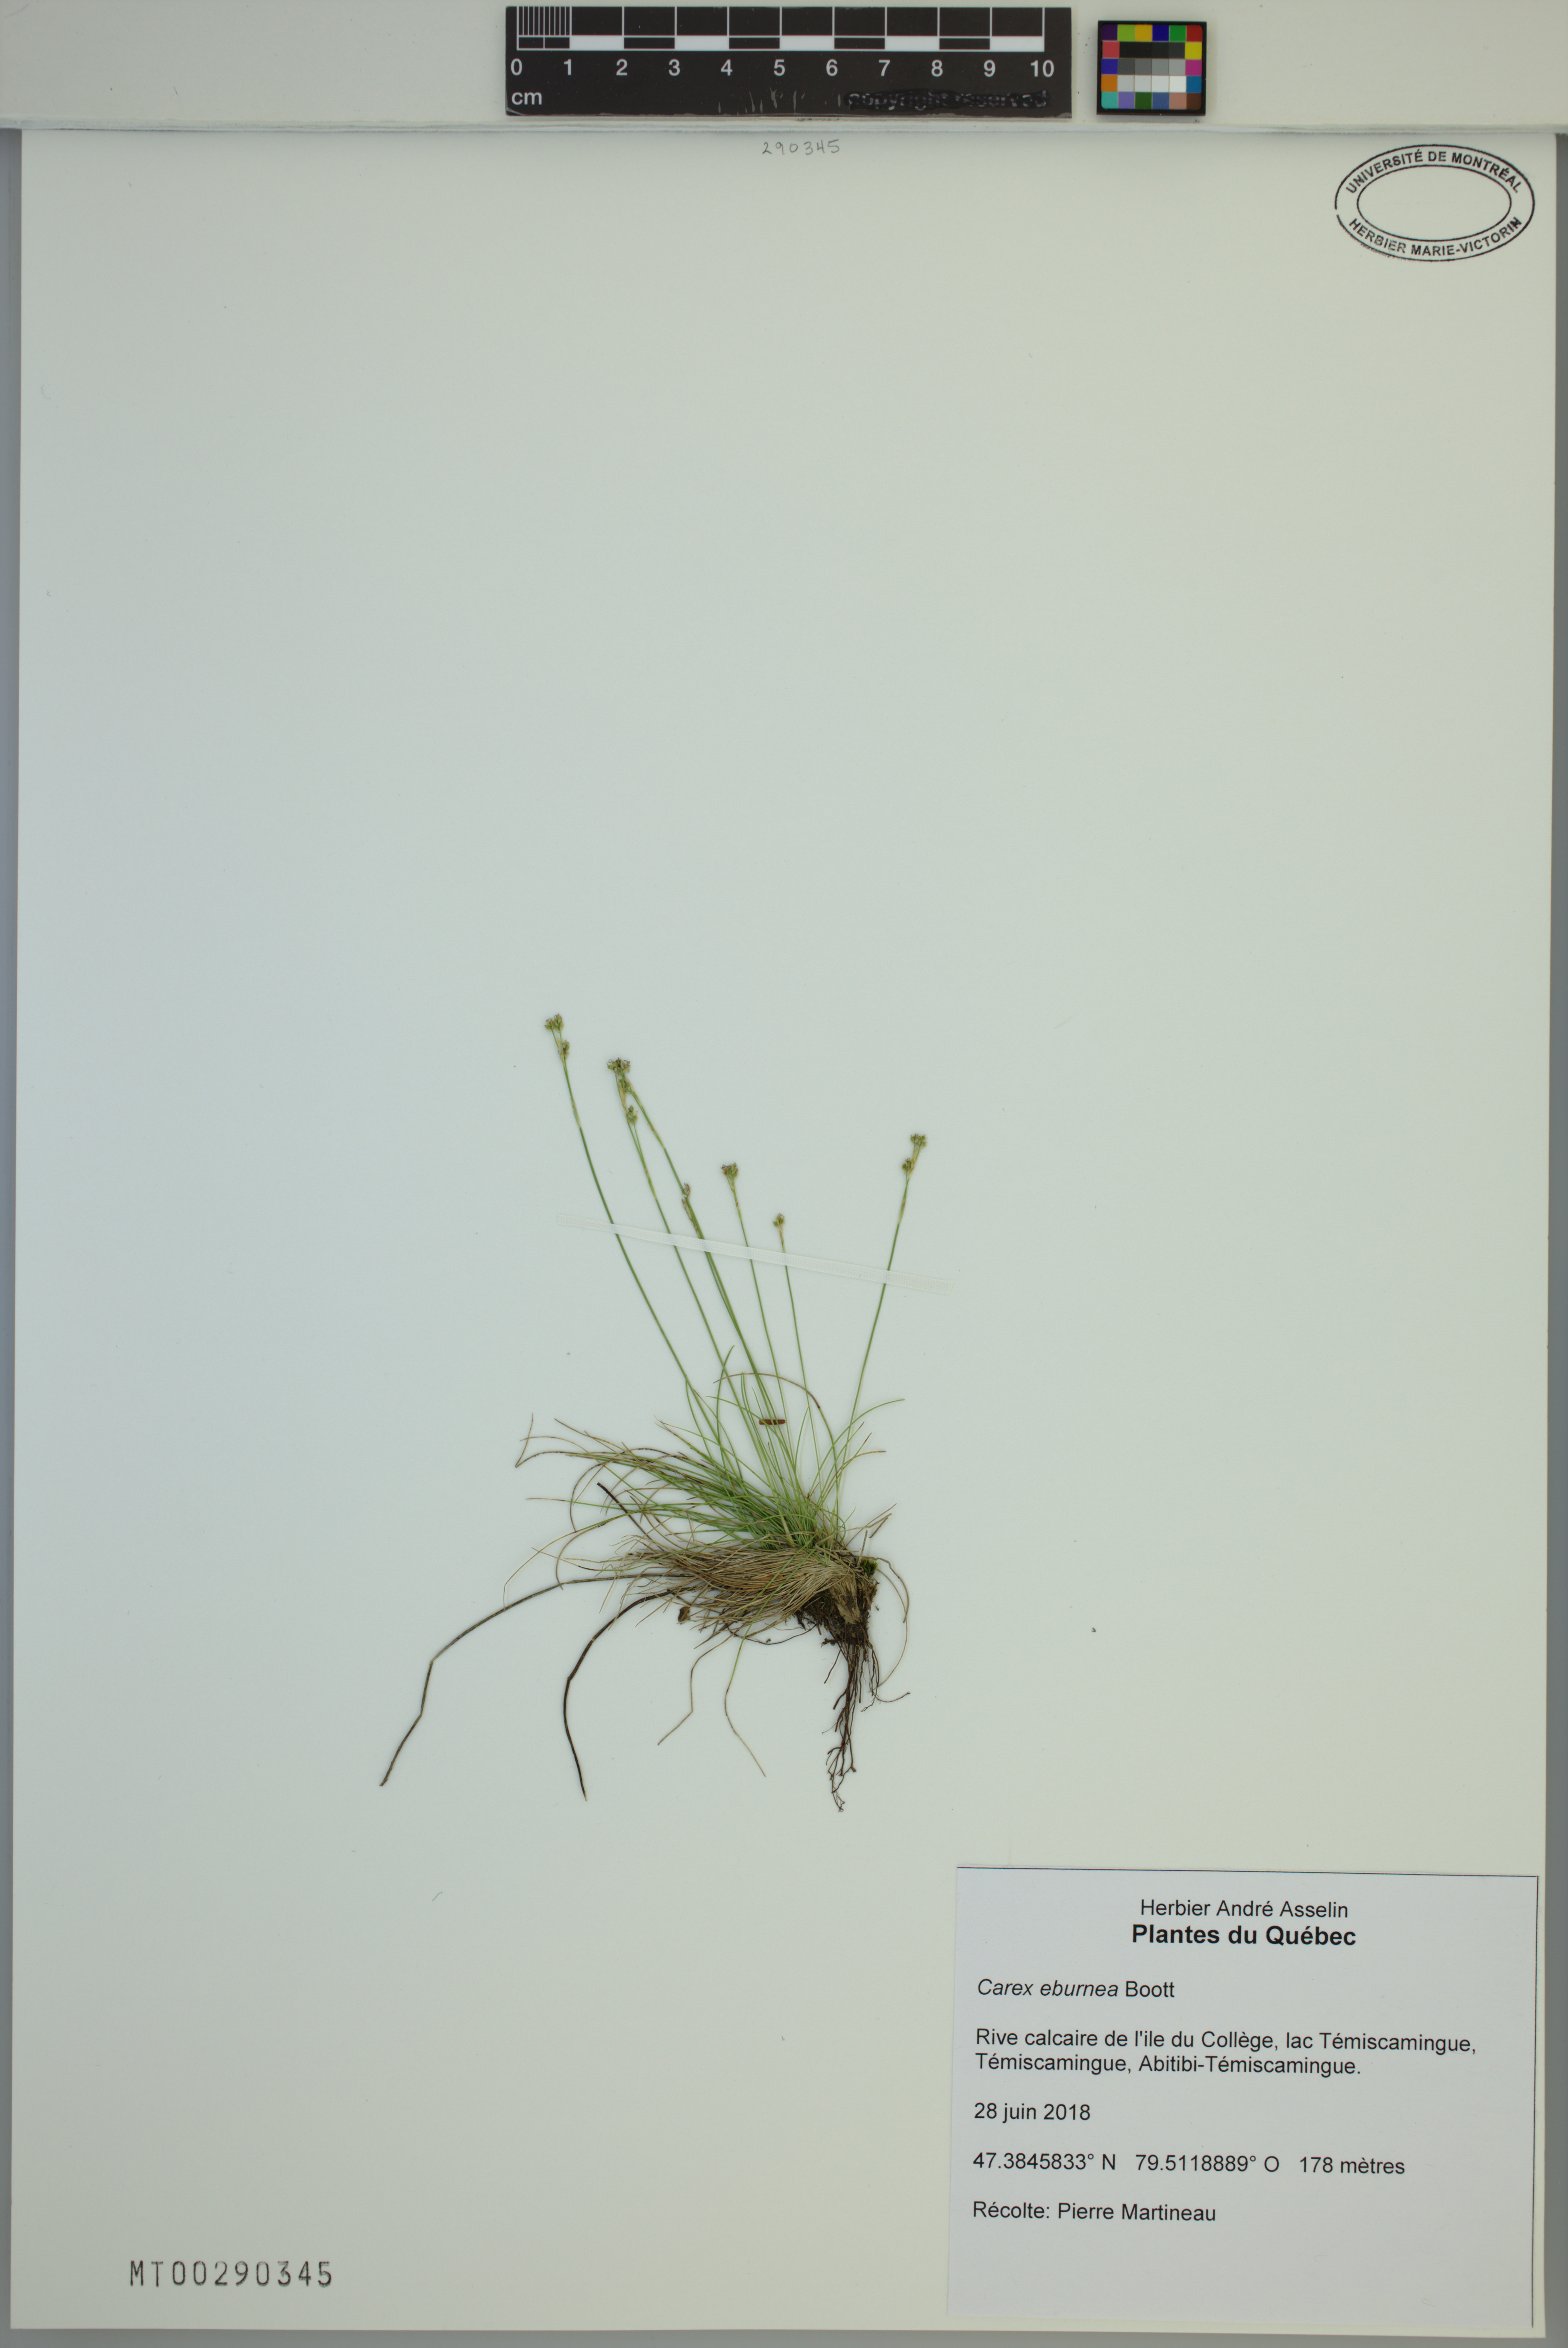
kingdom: Plantae
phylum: Tracheophyta
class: Liliopsida
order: Poales
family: Cyperaceae
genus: Carex
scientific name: Carex eburnea
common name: Bristle-leaved sedge
